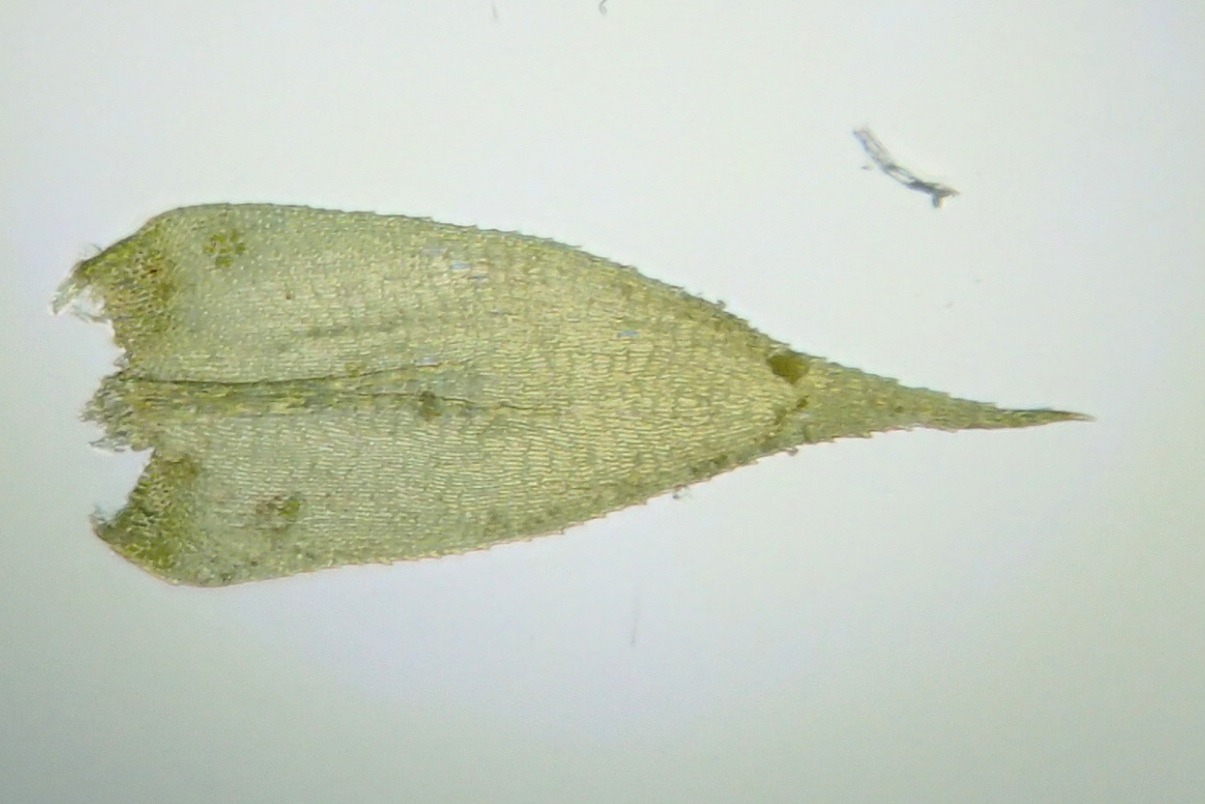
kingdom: Plantae
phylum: Bryophyta
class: Bryopsida
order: Hypnales
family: Lembophyllaceae
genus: Pseudisothecium
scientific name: Pseudisothecium myosuroides
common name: Slank stammemos
